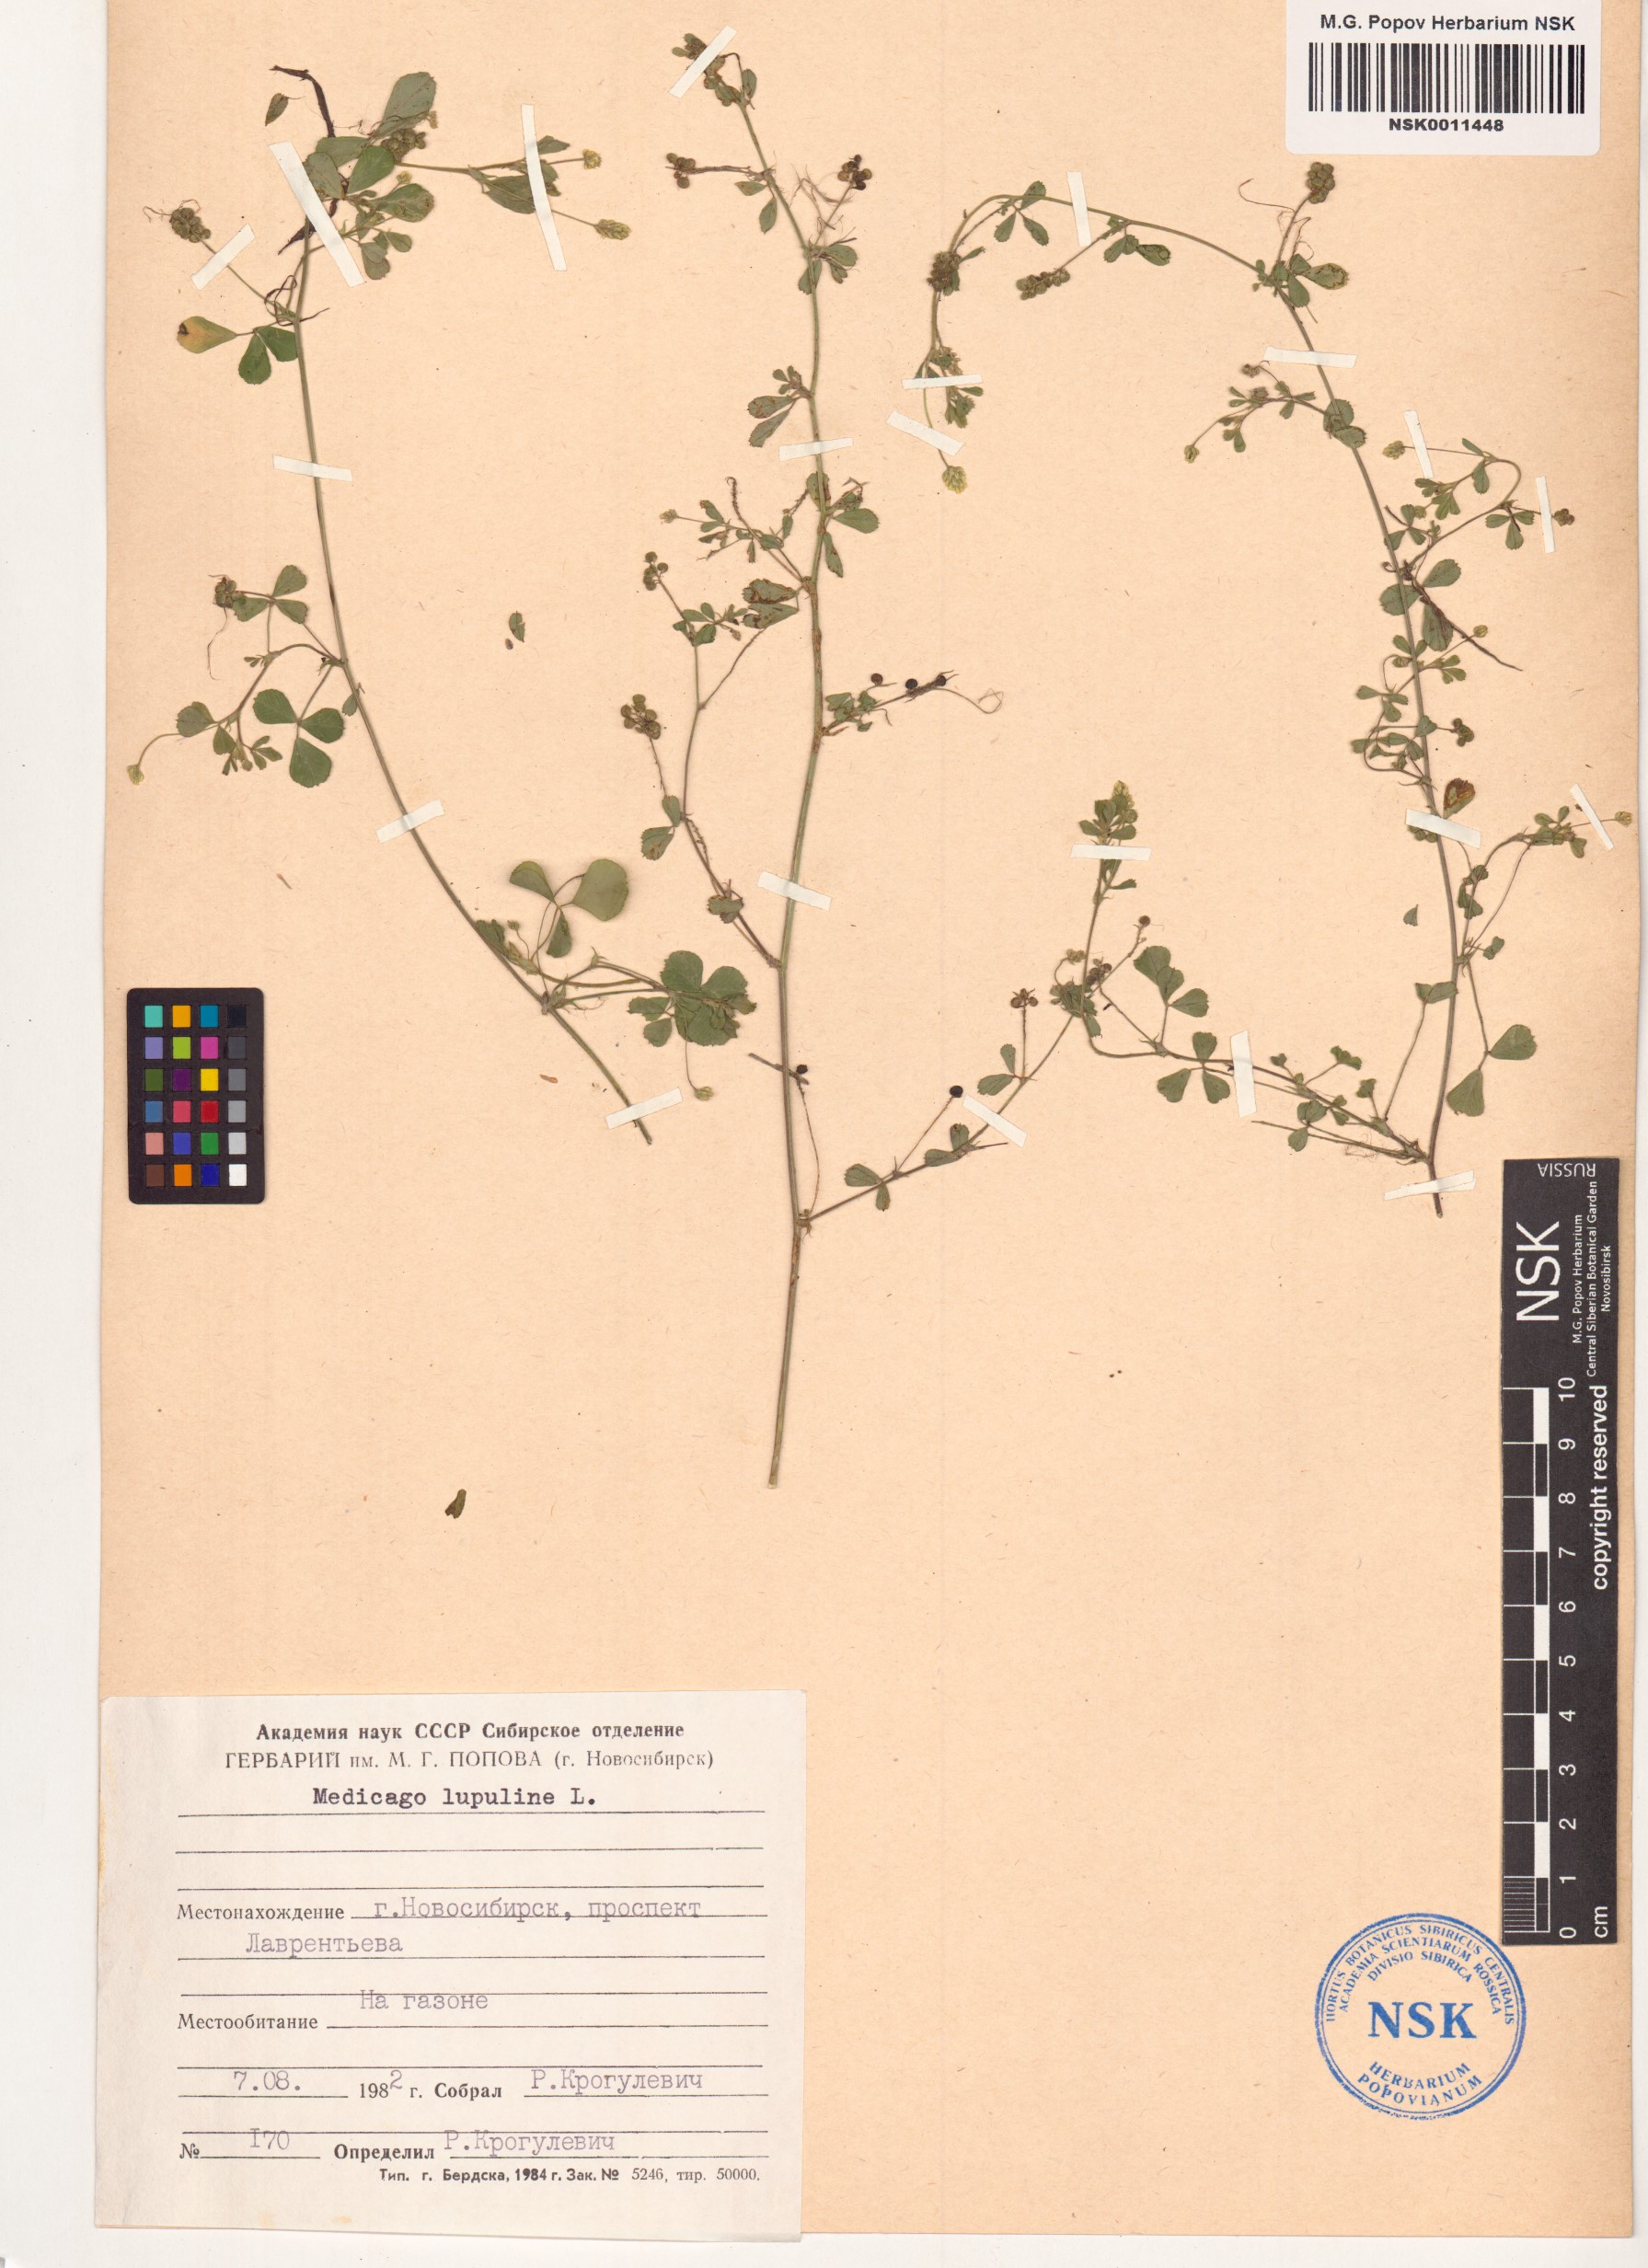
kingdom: Plantae
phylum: Tracheophyta
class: Magnoliopsida
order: Fabales
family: Fabaceae
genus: Medicago
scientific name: Medicago lupulina
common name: Black medick
